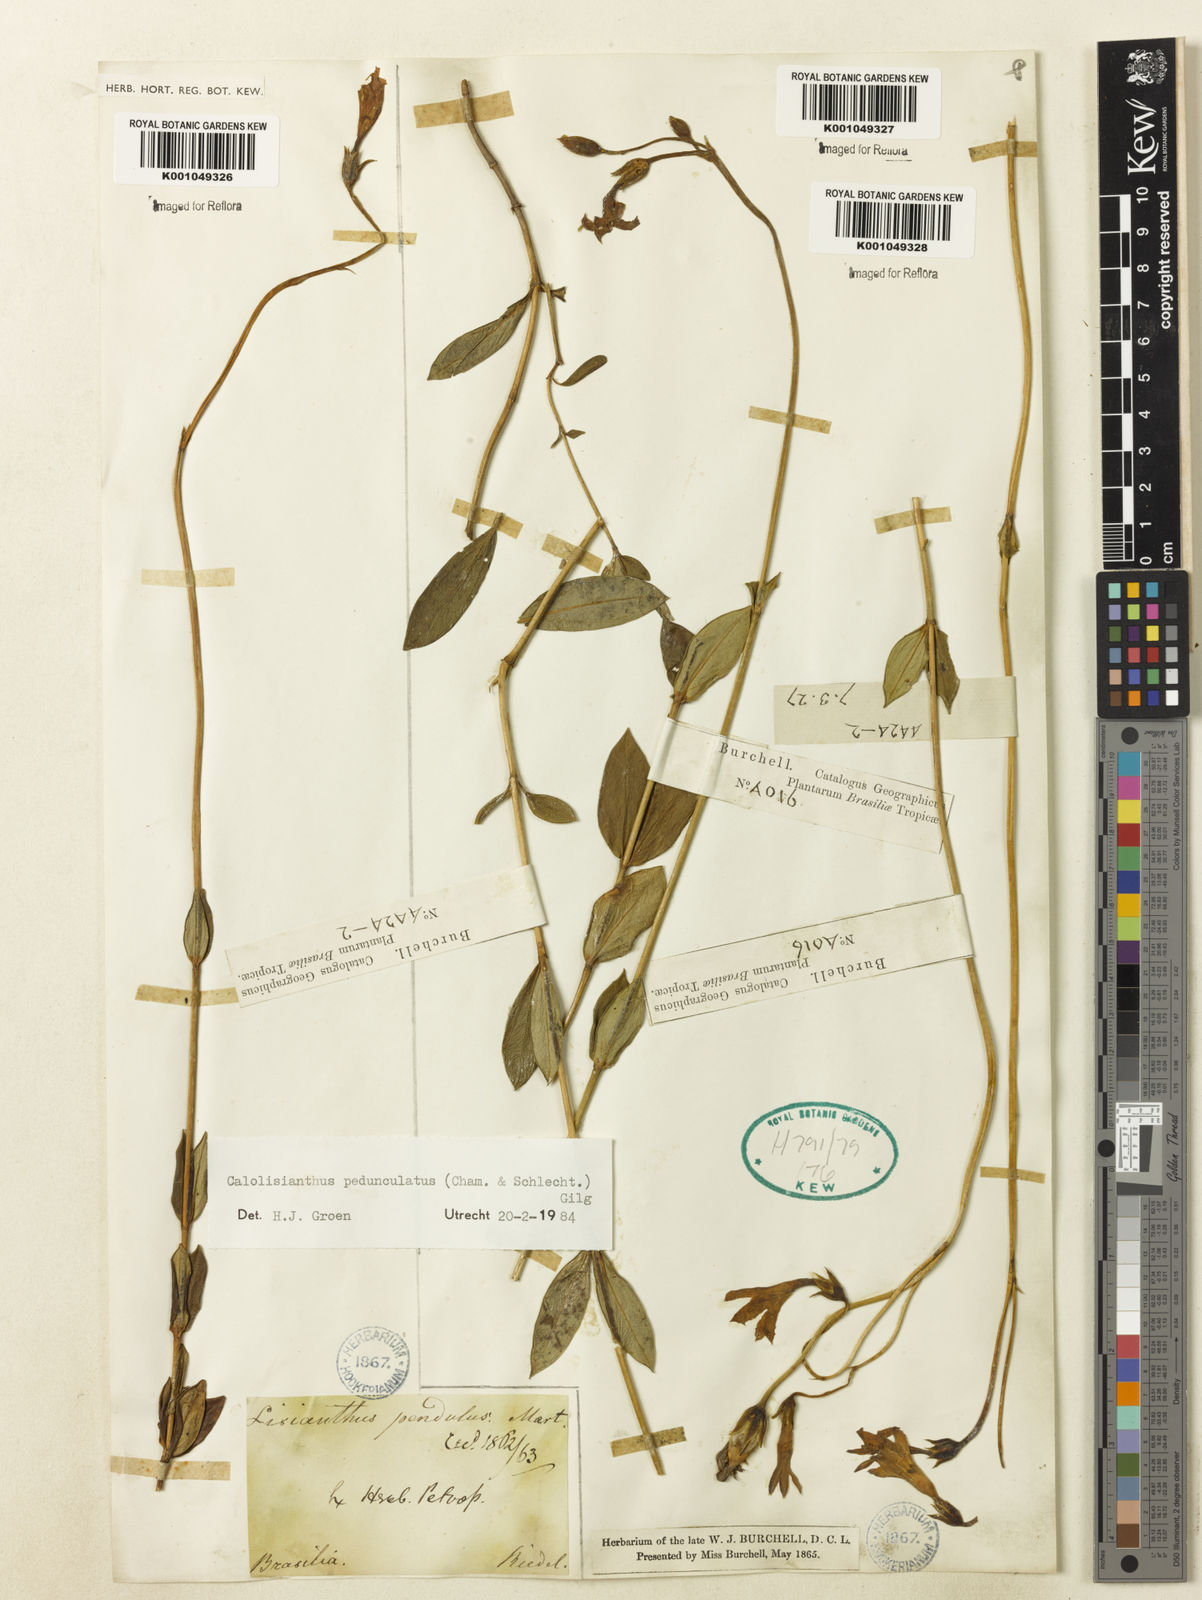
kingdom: Plantae
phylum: Tracheophyta
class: Magnoliopsida
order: Gentianales
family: Gentianaceae
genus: Calolisianthus
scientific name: Calolisianthus
